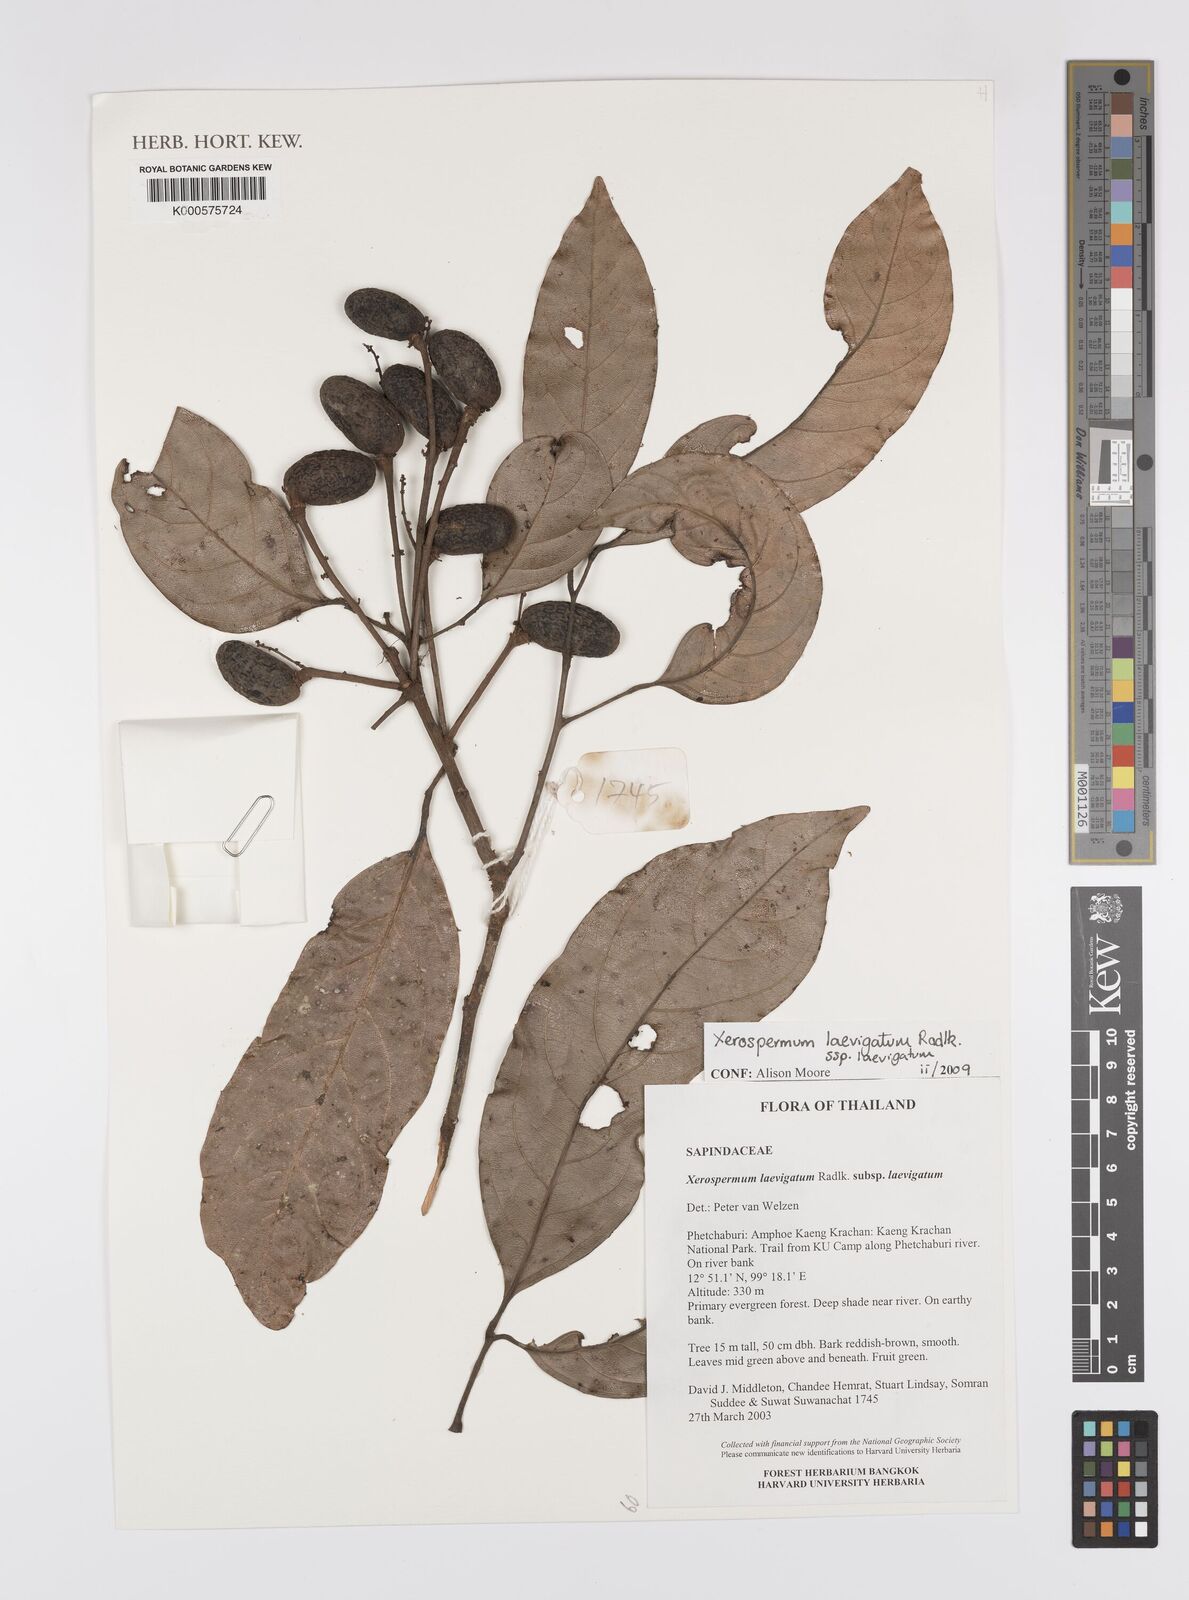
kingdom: Plantae
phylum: Tracheophyta
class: Magnoliopsida
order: Sapindales
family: Sapindaceae
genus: Xerospermum
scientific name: Xerospermum laevigatum
